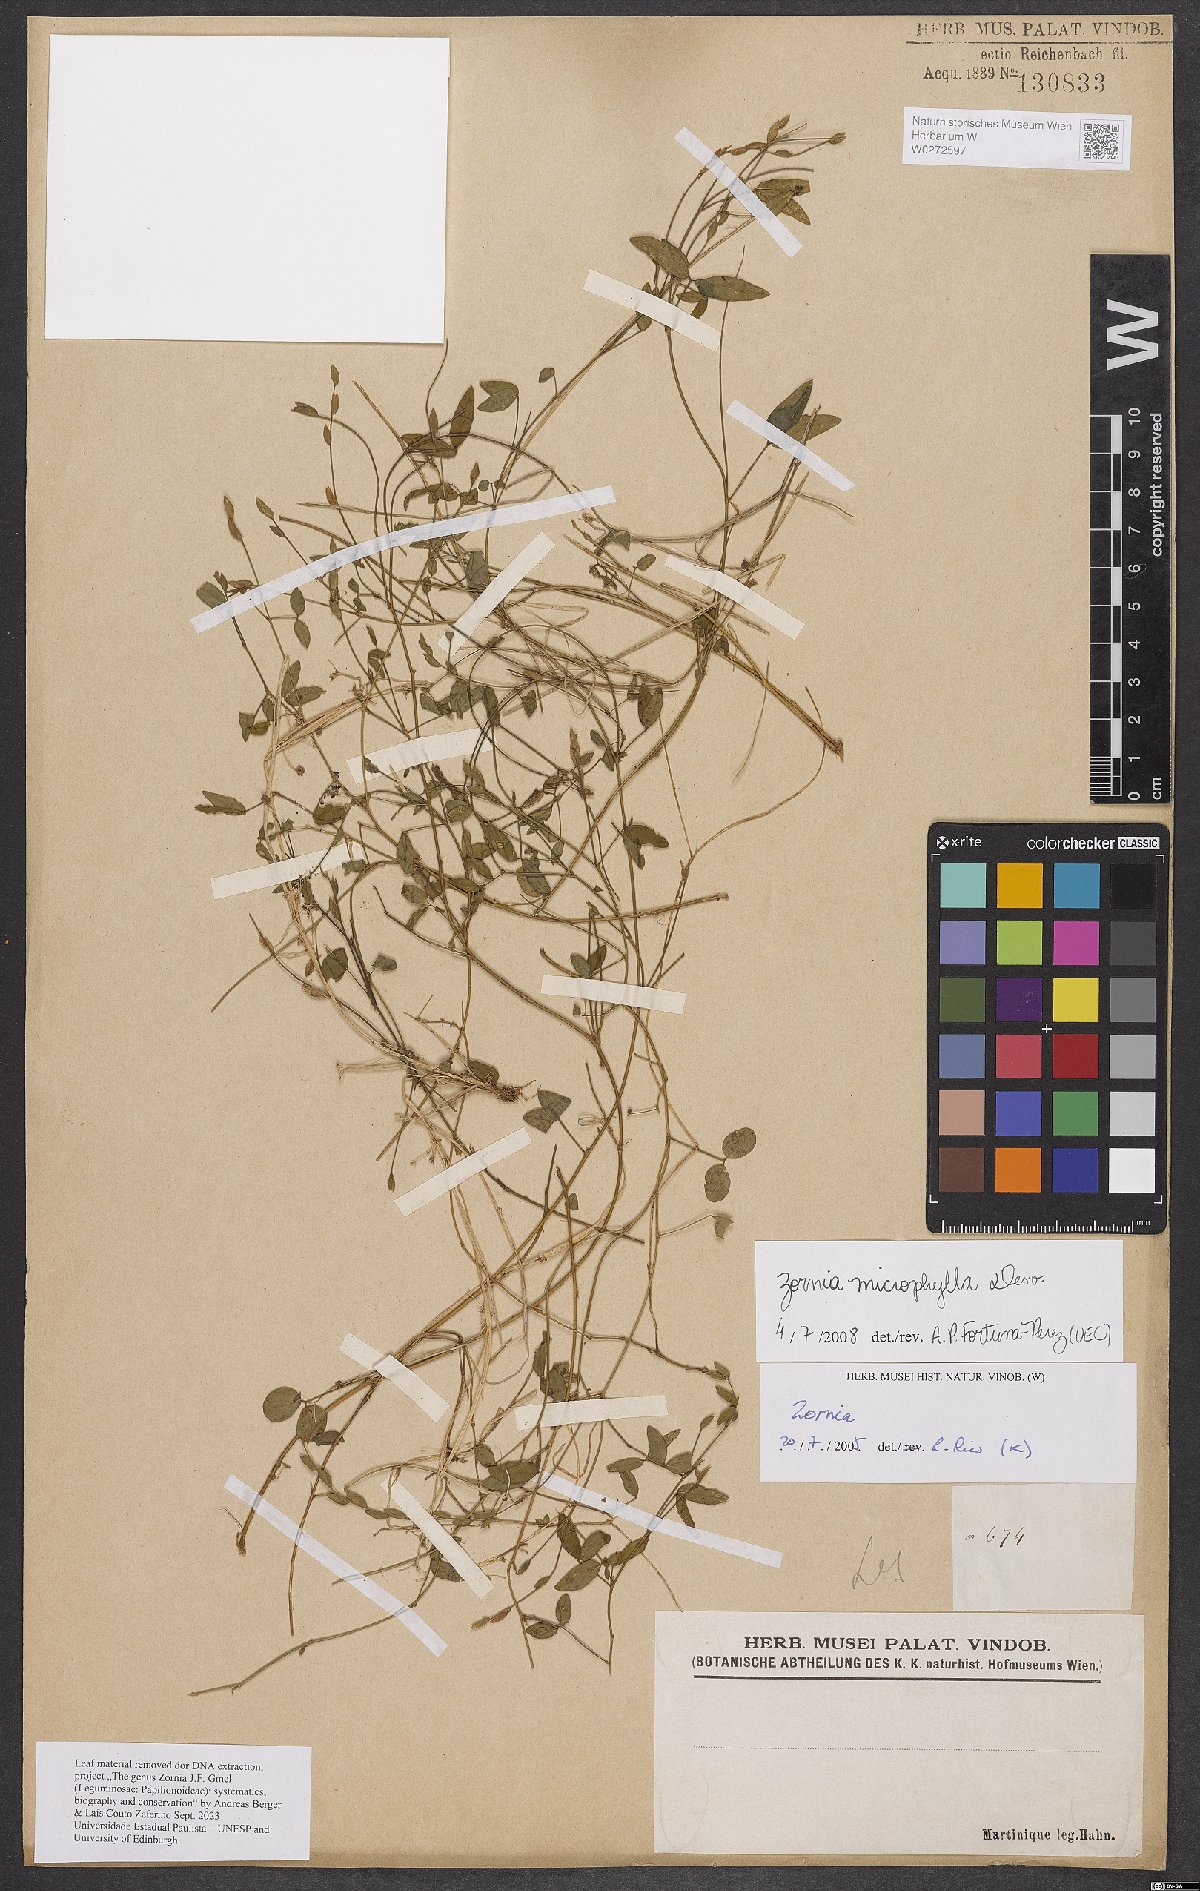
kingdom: Plantae
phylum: Tracheophyta
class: Magnoliopsida
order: Fabales
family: Fabaceae
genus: Zornia
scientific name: Zornia microphylla
